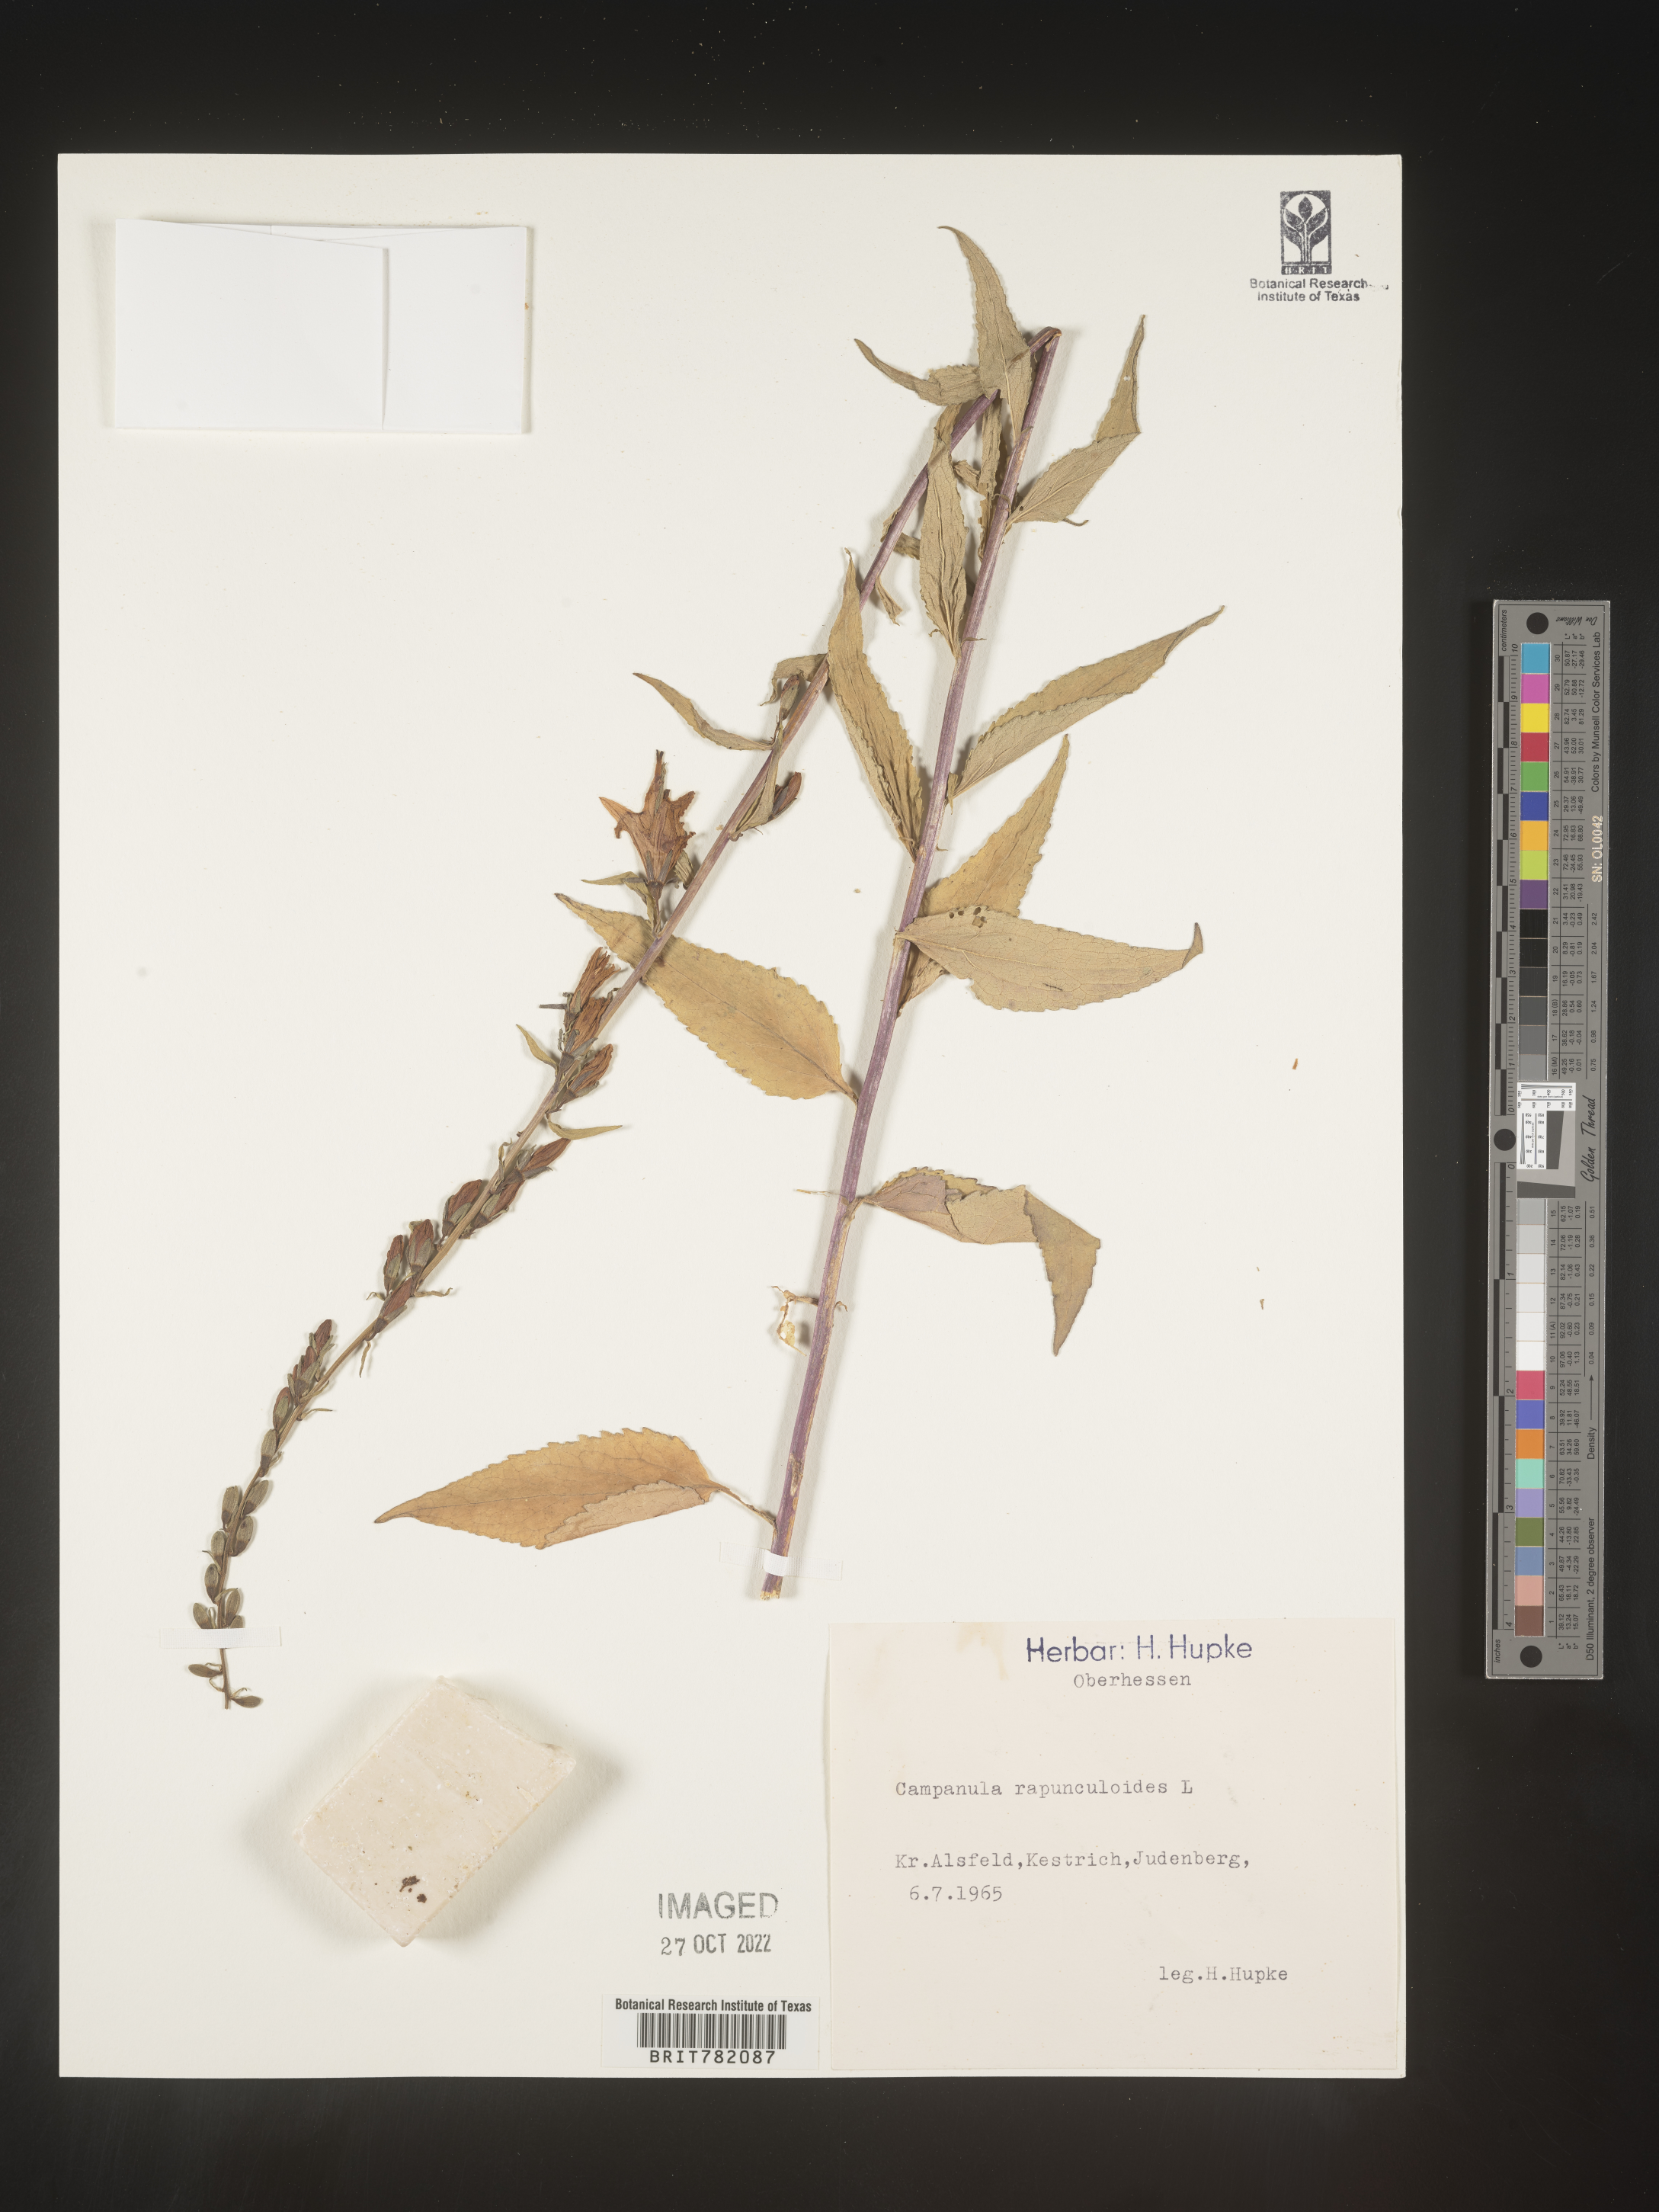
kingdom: Plantae
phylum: Tracheophyta
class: Magnoliopsida
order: Asterales
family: Campanulaceae
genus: Campanula
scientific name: Campanula
